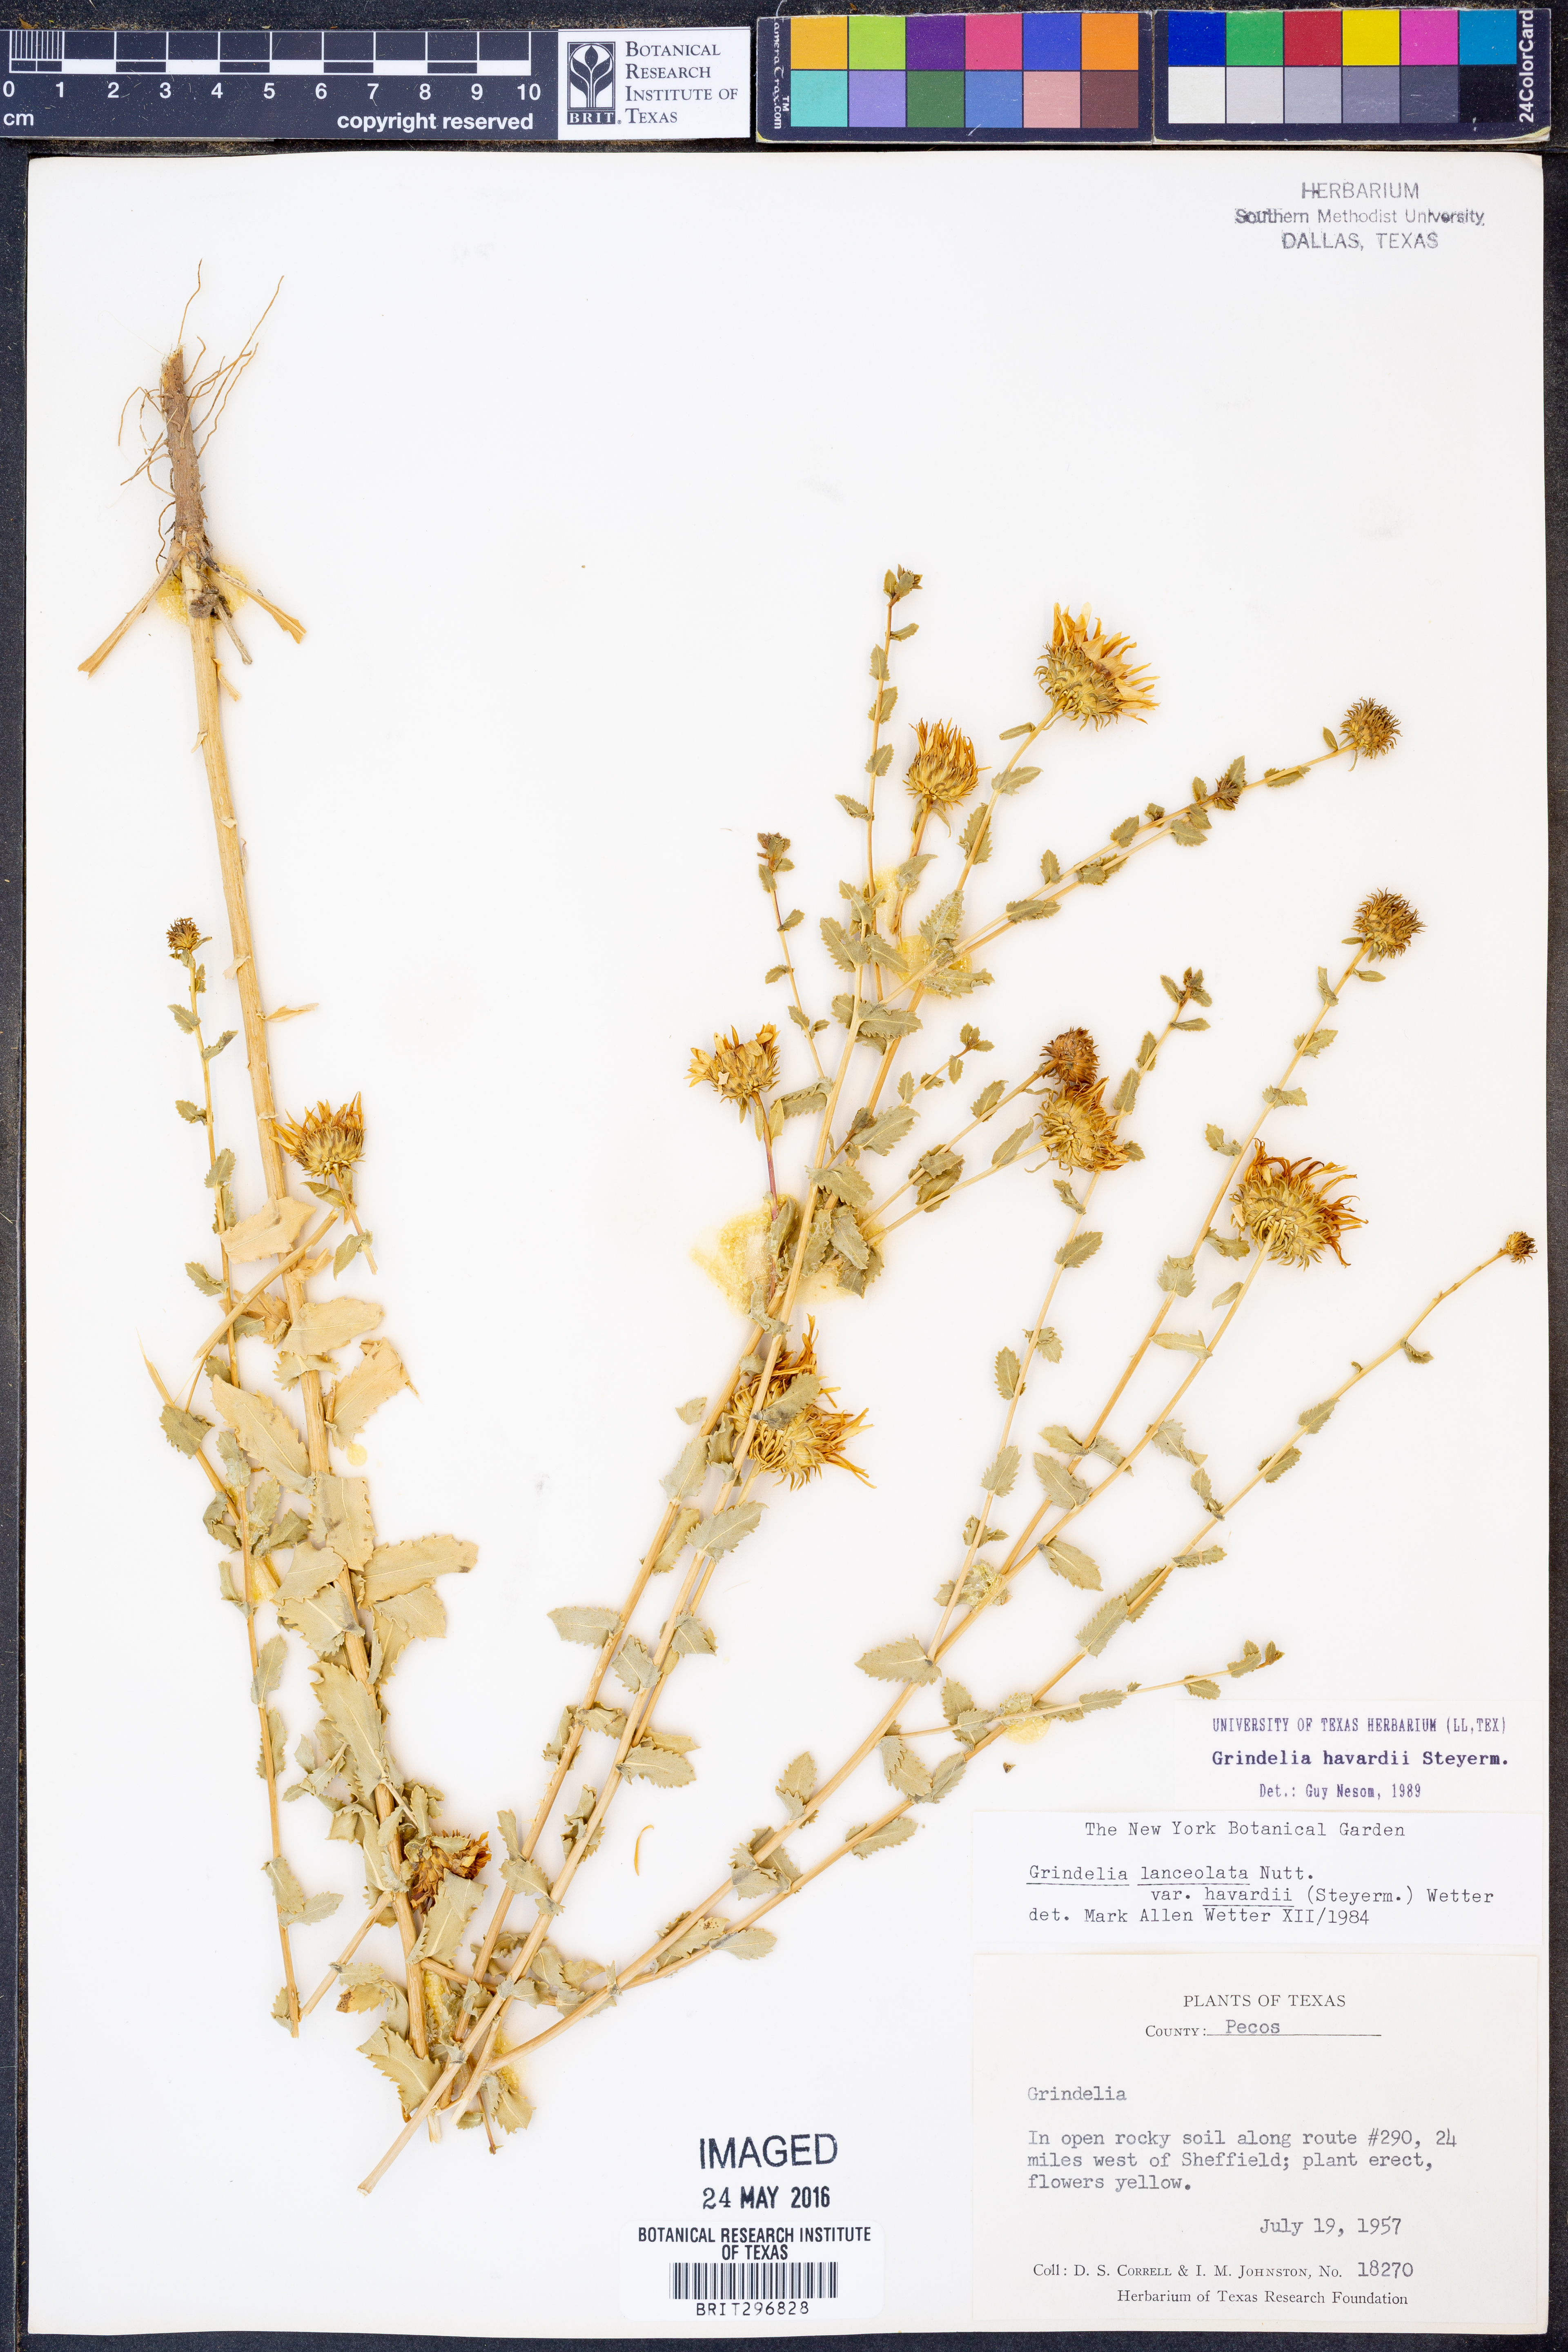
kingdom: Plantae
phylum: Tracheophyta
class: Magnoliopsida
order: Asterales
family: Asteraceae
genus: Grindelia
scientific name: Grindelia havardii
